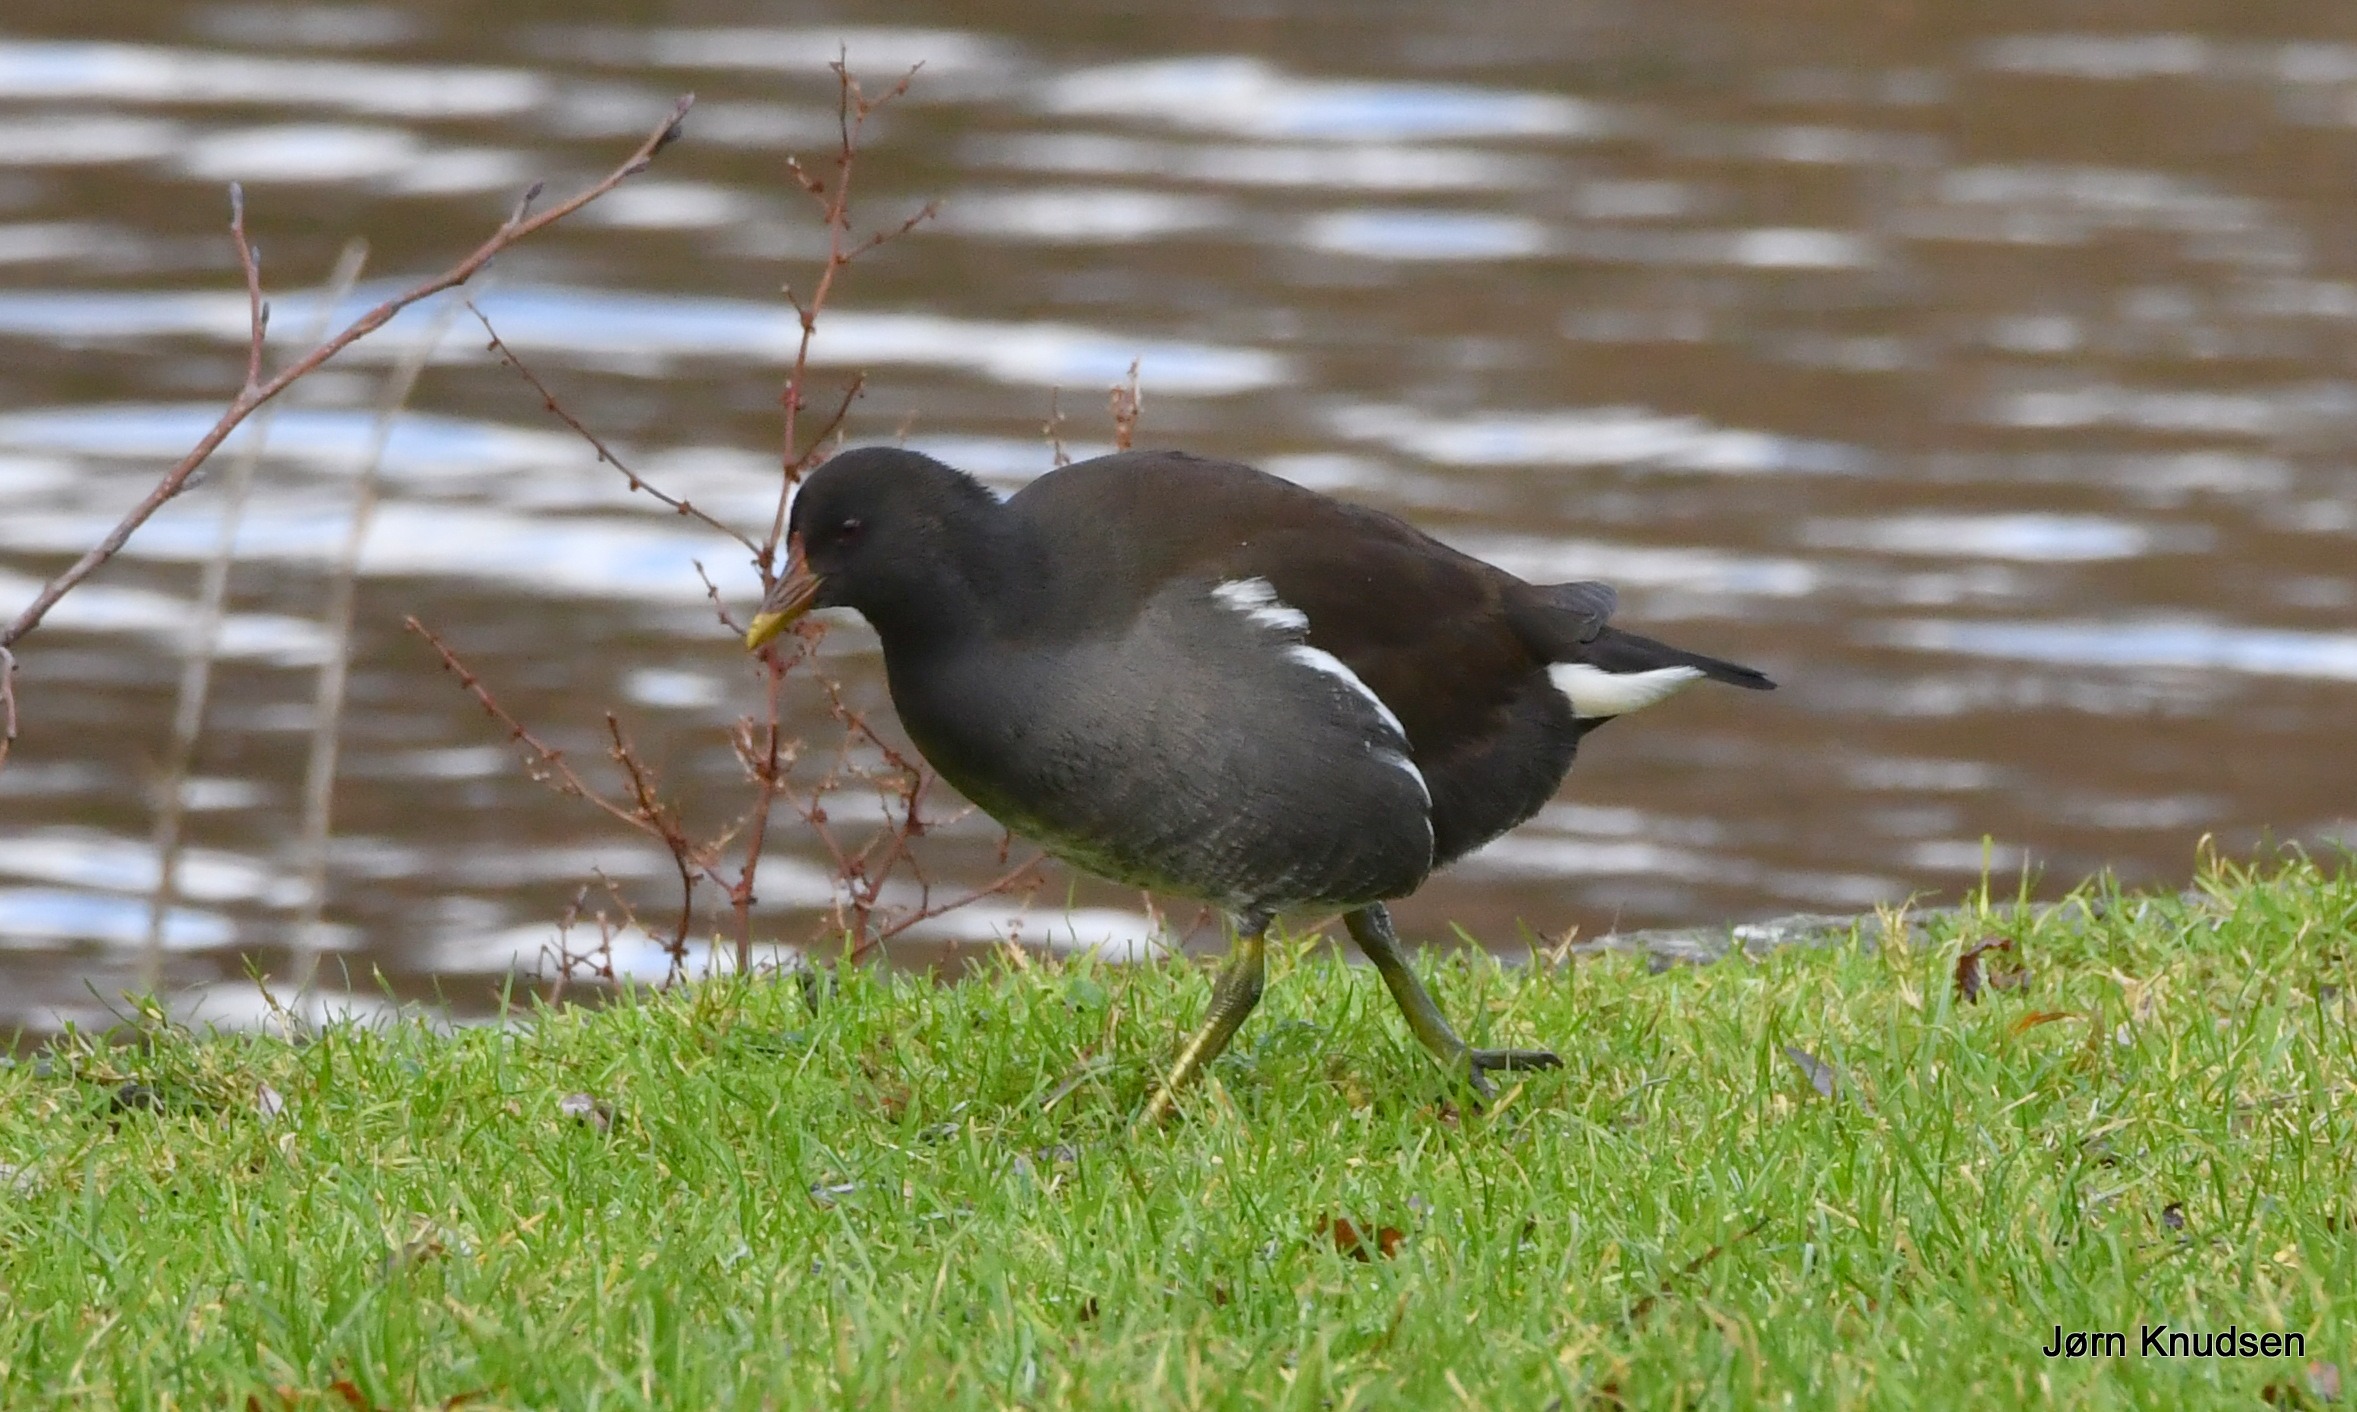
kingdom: Animalia
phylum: Chordata
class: Aves
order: Gruiformes
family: Rallidae
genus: Gallinula
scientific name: Gallinula chloropus
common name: Grønbenet rørhøne
